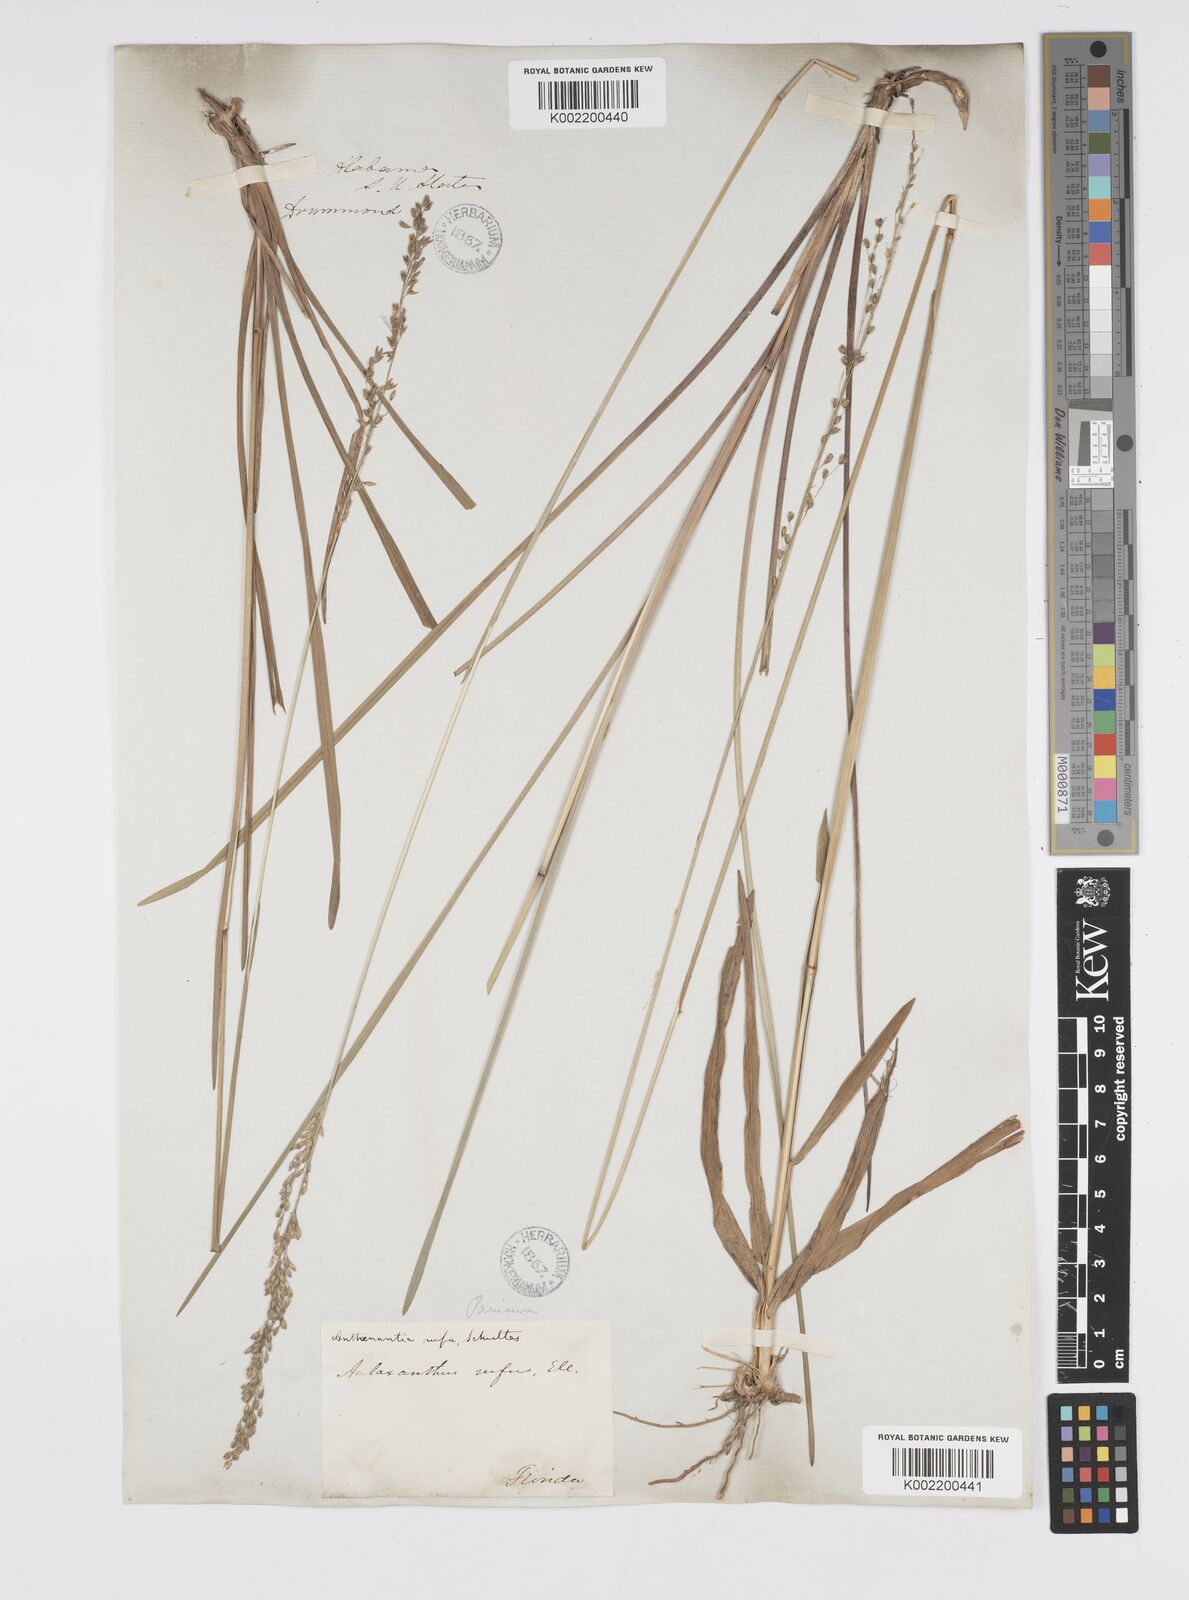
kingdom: Plantae
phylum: Tracheophyta
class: Liliopsida
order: Poales
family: Poaceae
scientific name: Poaceae
